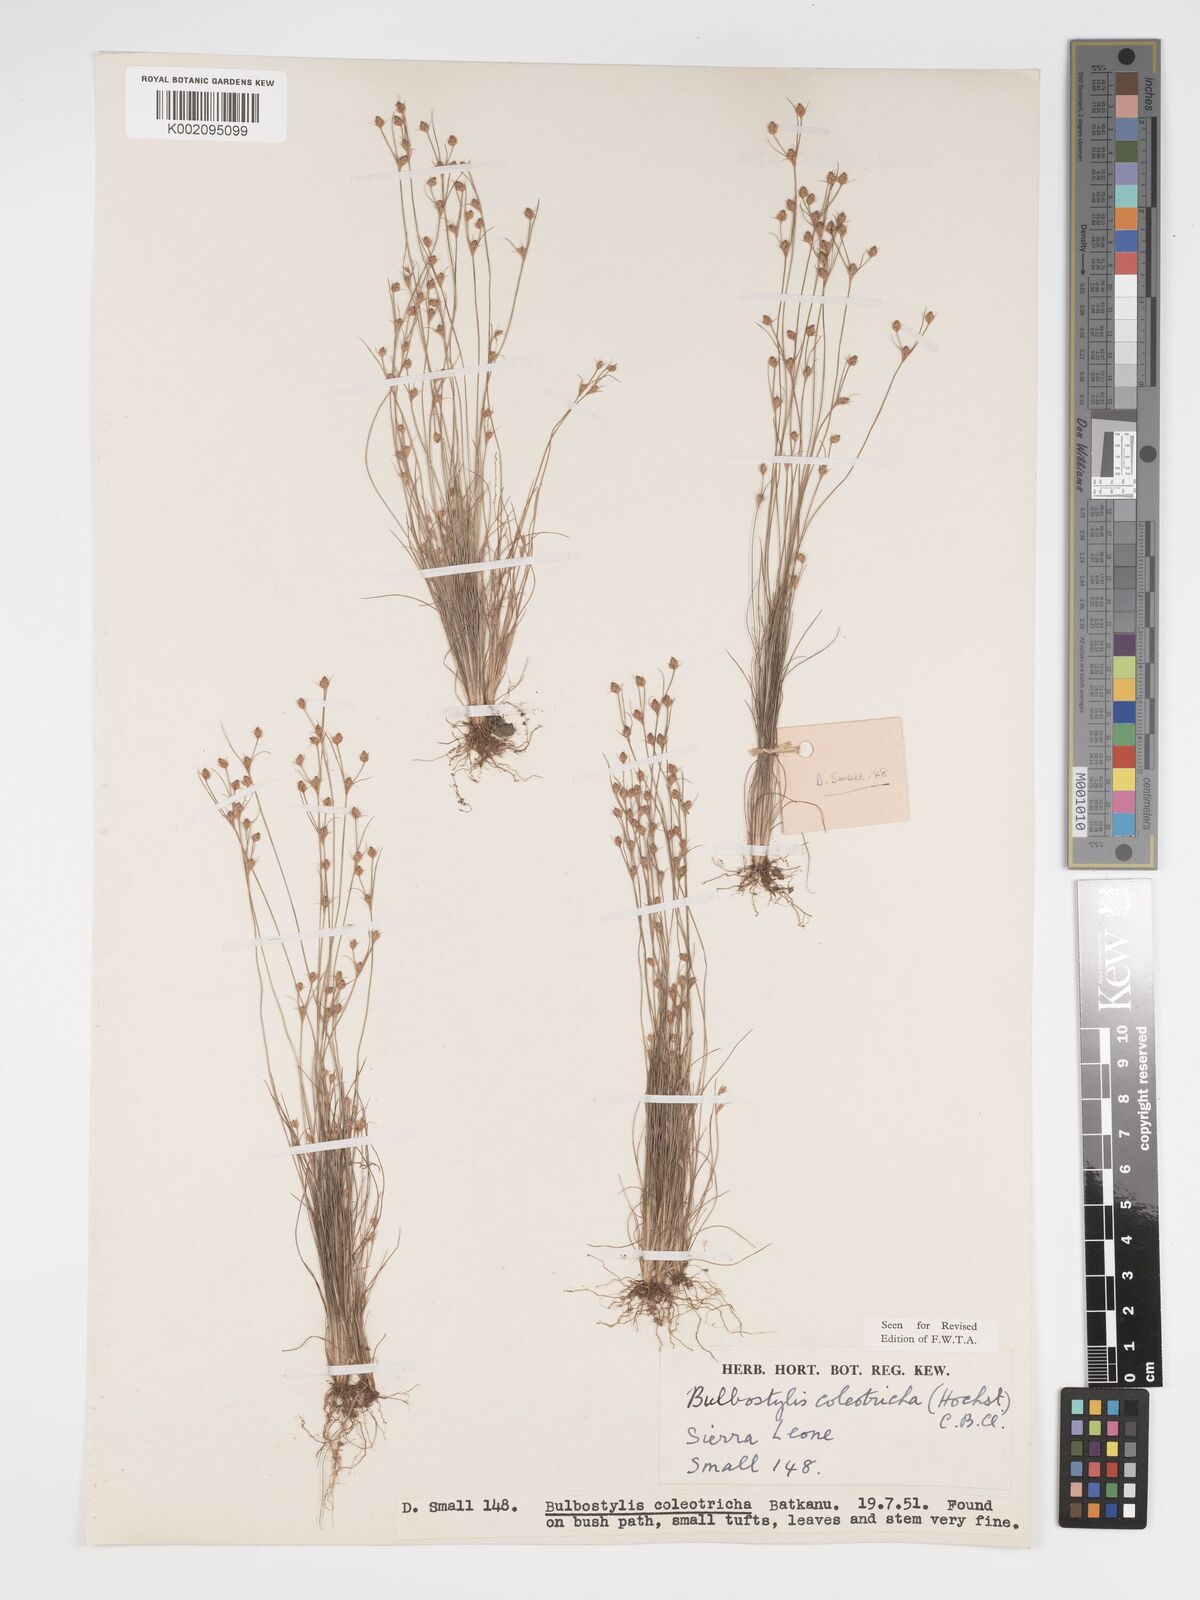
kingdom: Plantae
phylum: Tracheophyta
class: Liliopsida
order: Poales
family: Cyperaceae
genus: Bulbostylis
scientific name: Bulbostylis coleotricha
